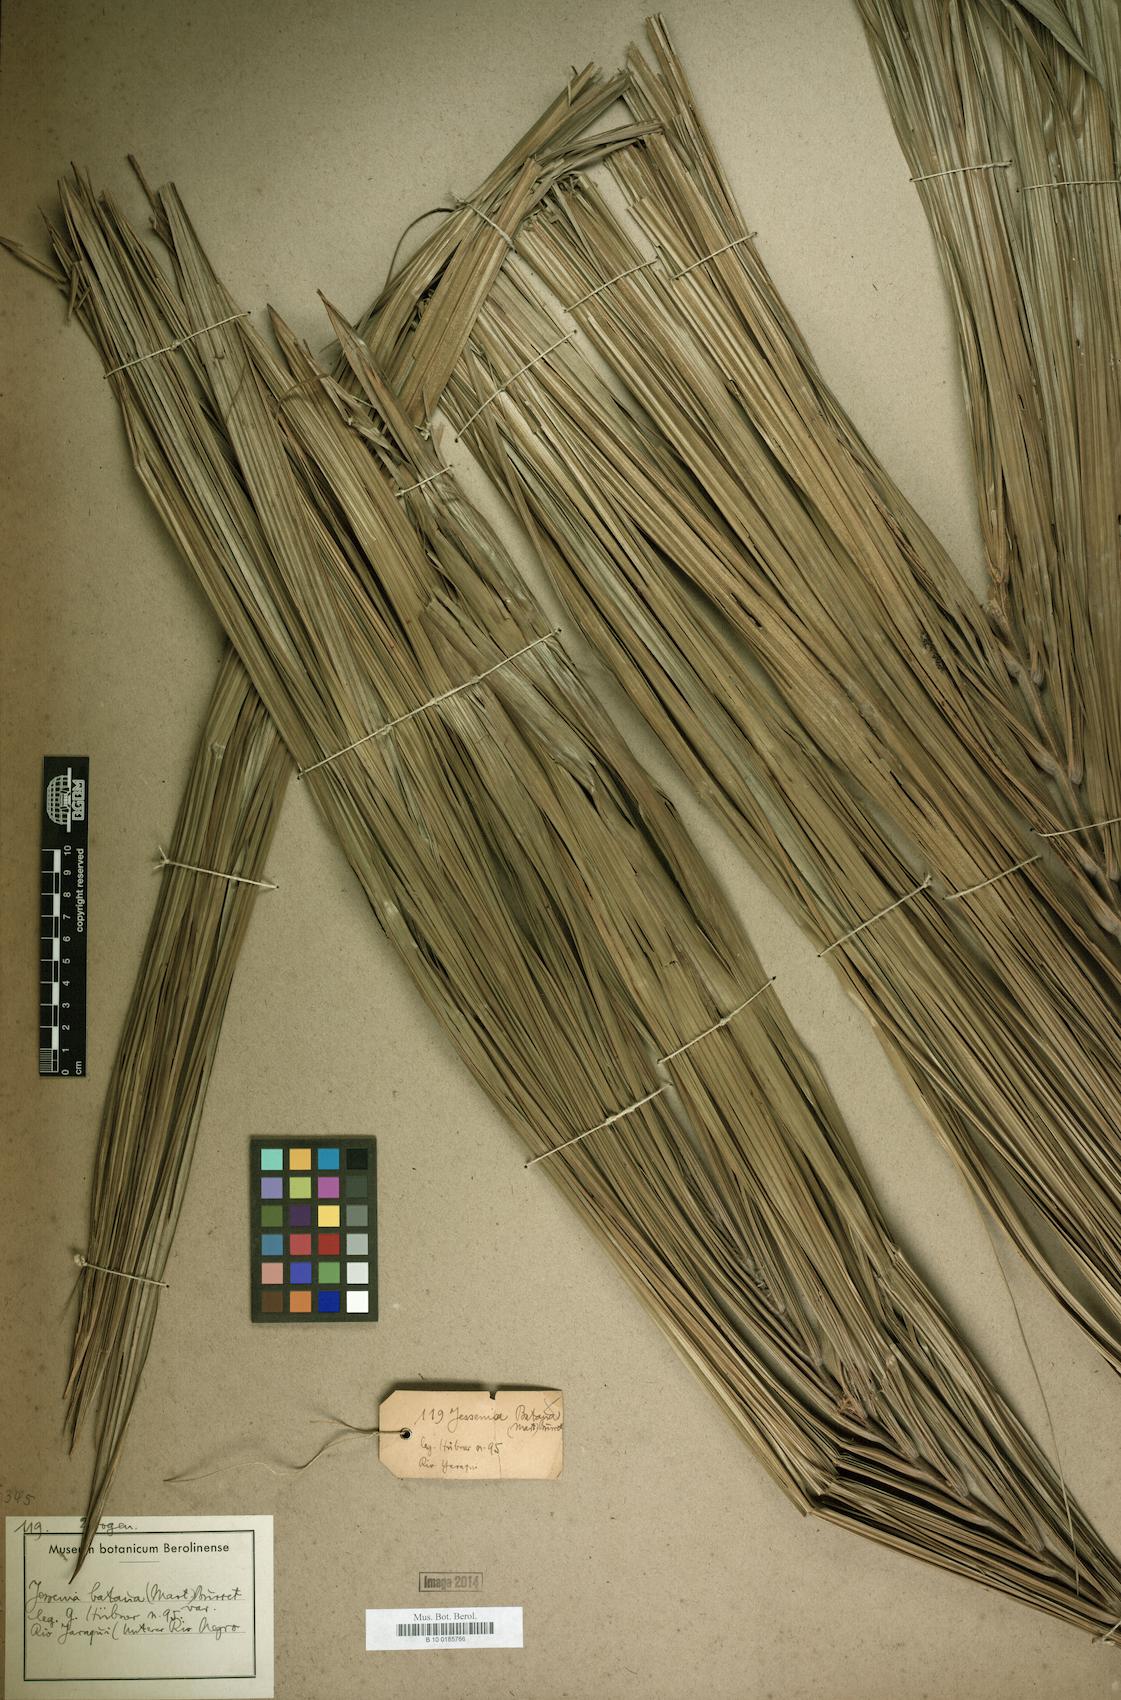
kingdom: Plantae
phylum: Tracheophyta
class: Liliopsida
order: Arecales
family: Arecaceae
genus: Oenocarpus
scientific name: Oenocarpus bataua
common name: Bataua palm
